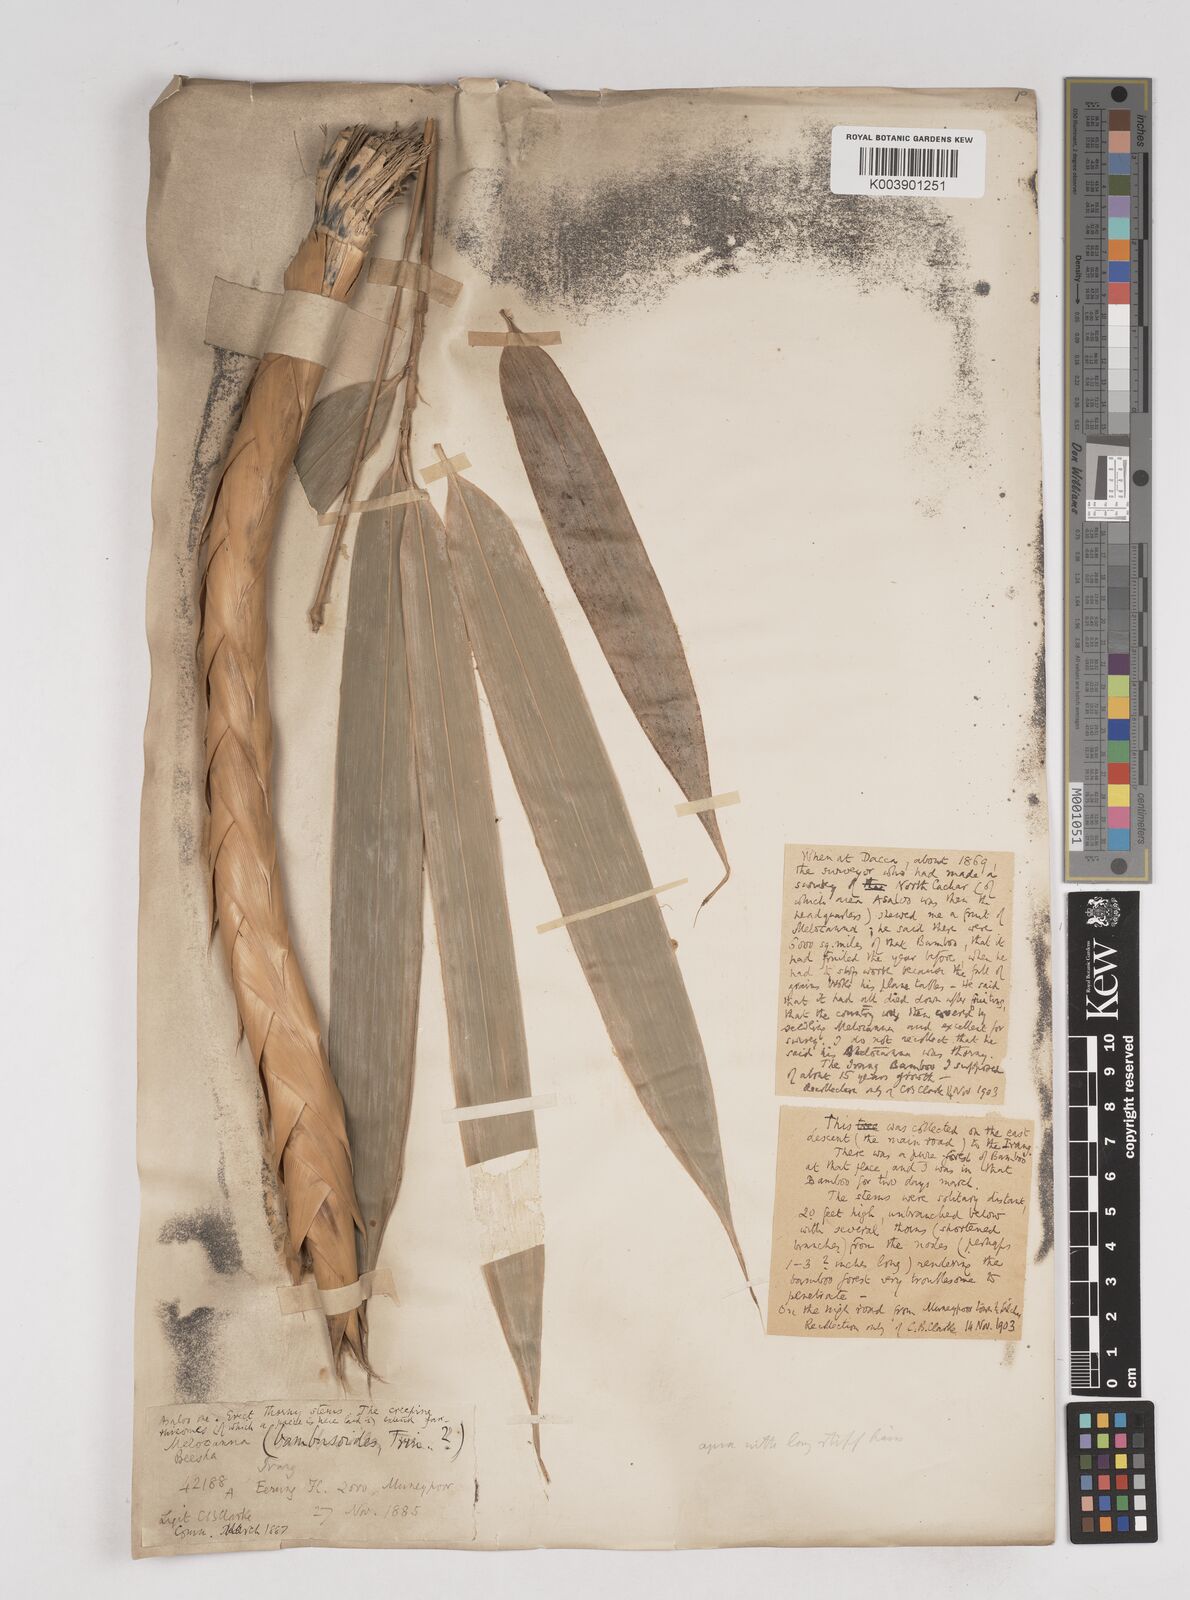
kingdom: Plantae
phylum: Tracheophyta
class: Liliopsida
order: Poales
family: Poaceae
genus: Melocanna
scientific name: Melocanna baccifera
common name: Berry bamboo
